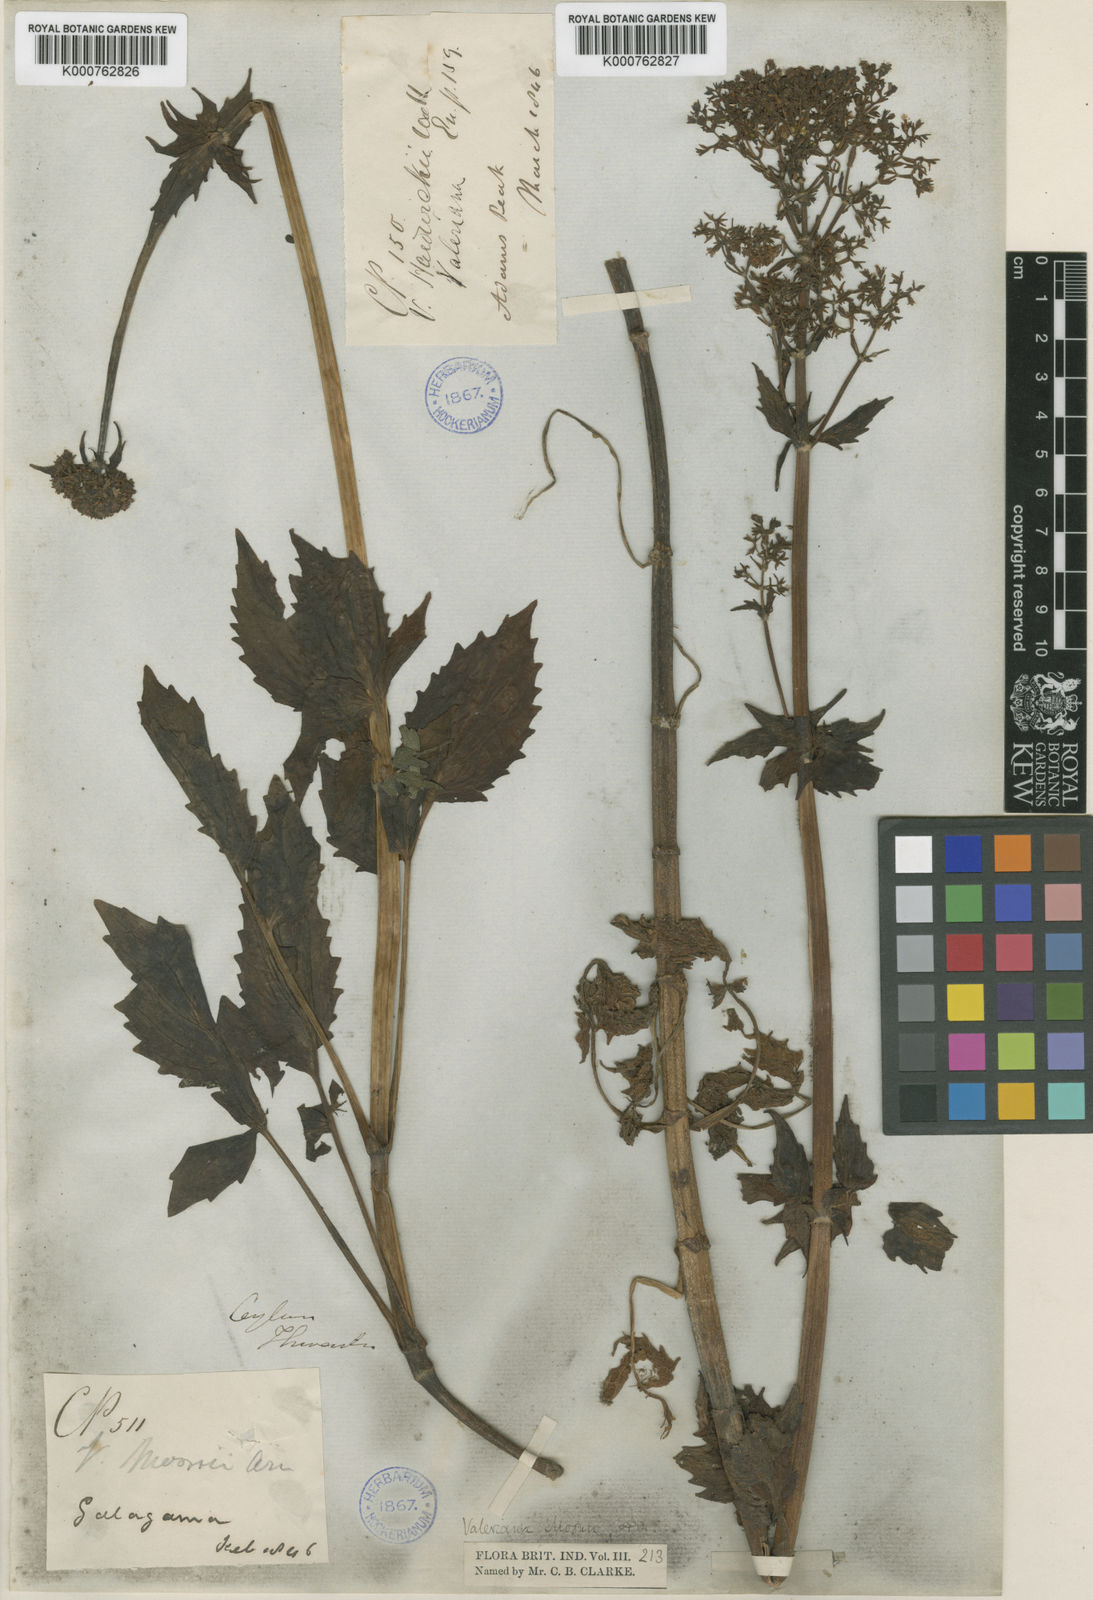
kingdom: Plantae
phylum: Tracheophyta
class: Magnoliopsida
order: Dipsacales
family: Caprifoliaceae
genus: Valeriana
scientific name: Valeriana moonii
